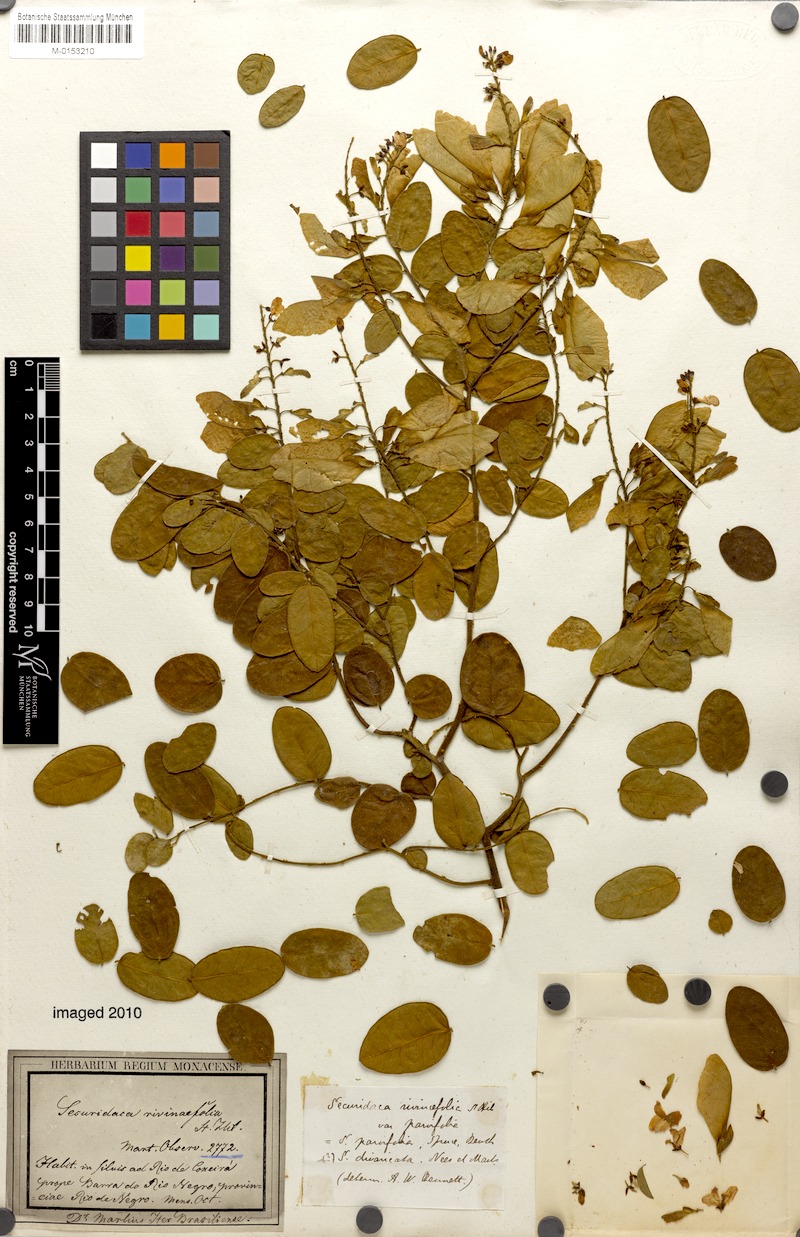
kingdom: Plantae
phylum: Tracheophyta
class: Magnoliopsida
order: Fabales
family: Polygalaceae
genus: Securidaca
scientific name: Securidaca divaricata
